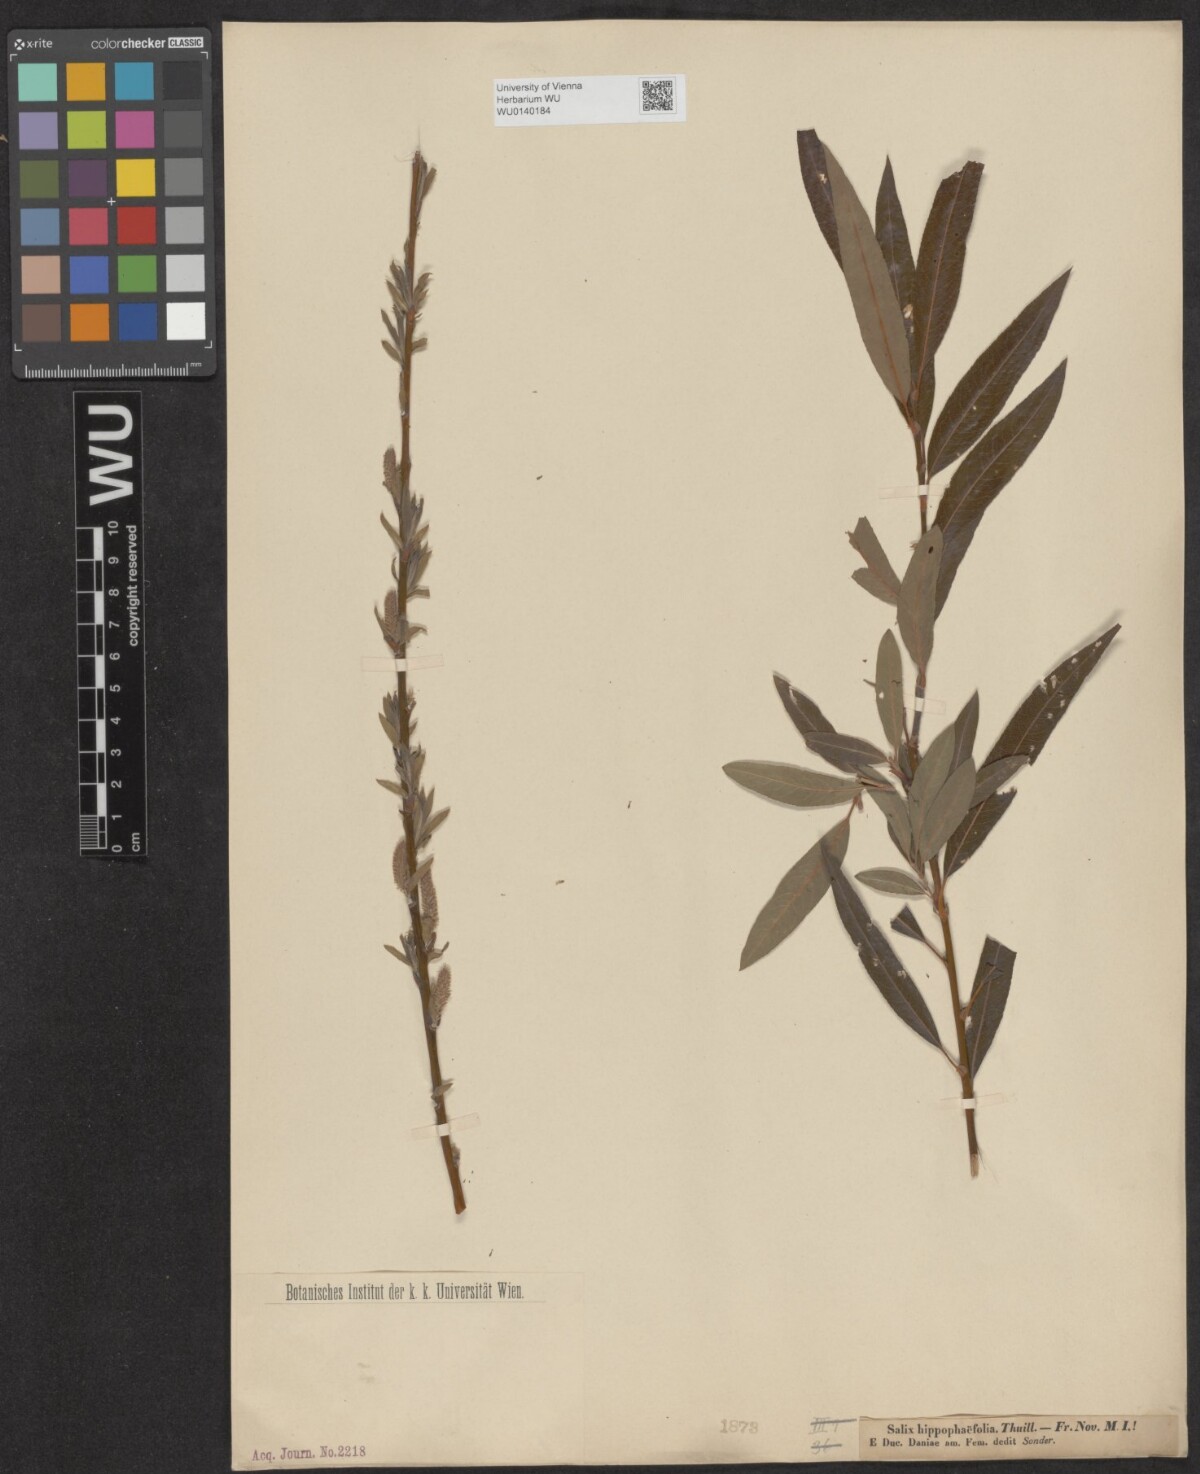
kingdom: Plantae
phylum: Tracheophyta
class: Magnoliopsida
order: Malpighiales
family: Salicaceae
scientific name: Salicaceae
